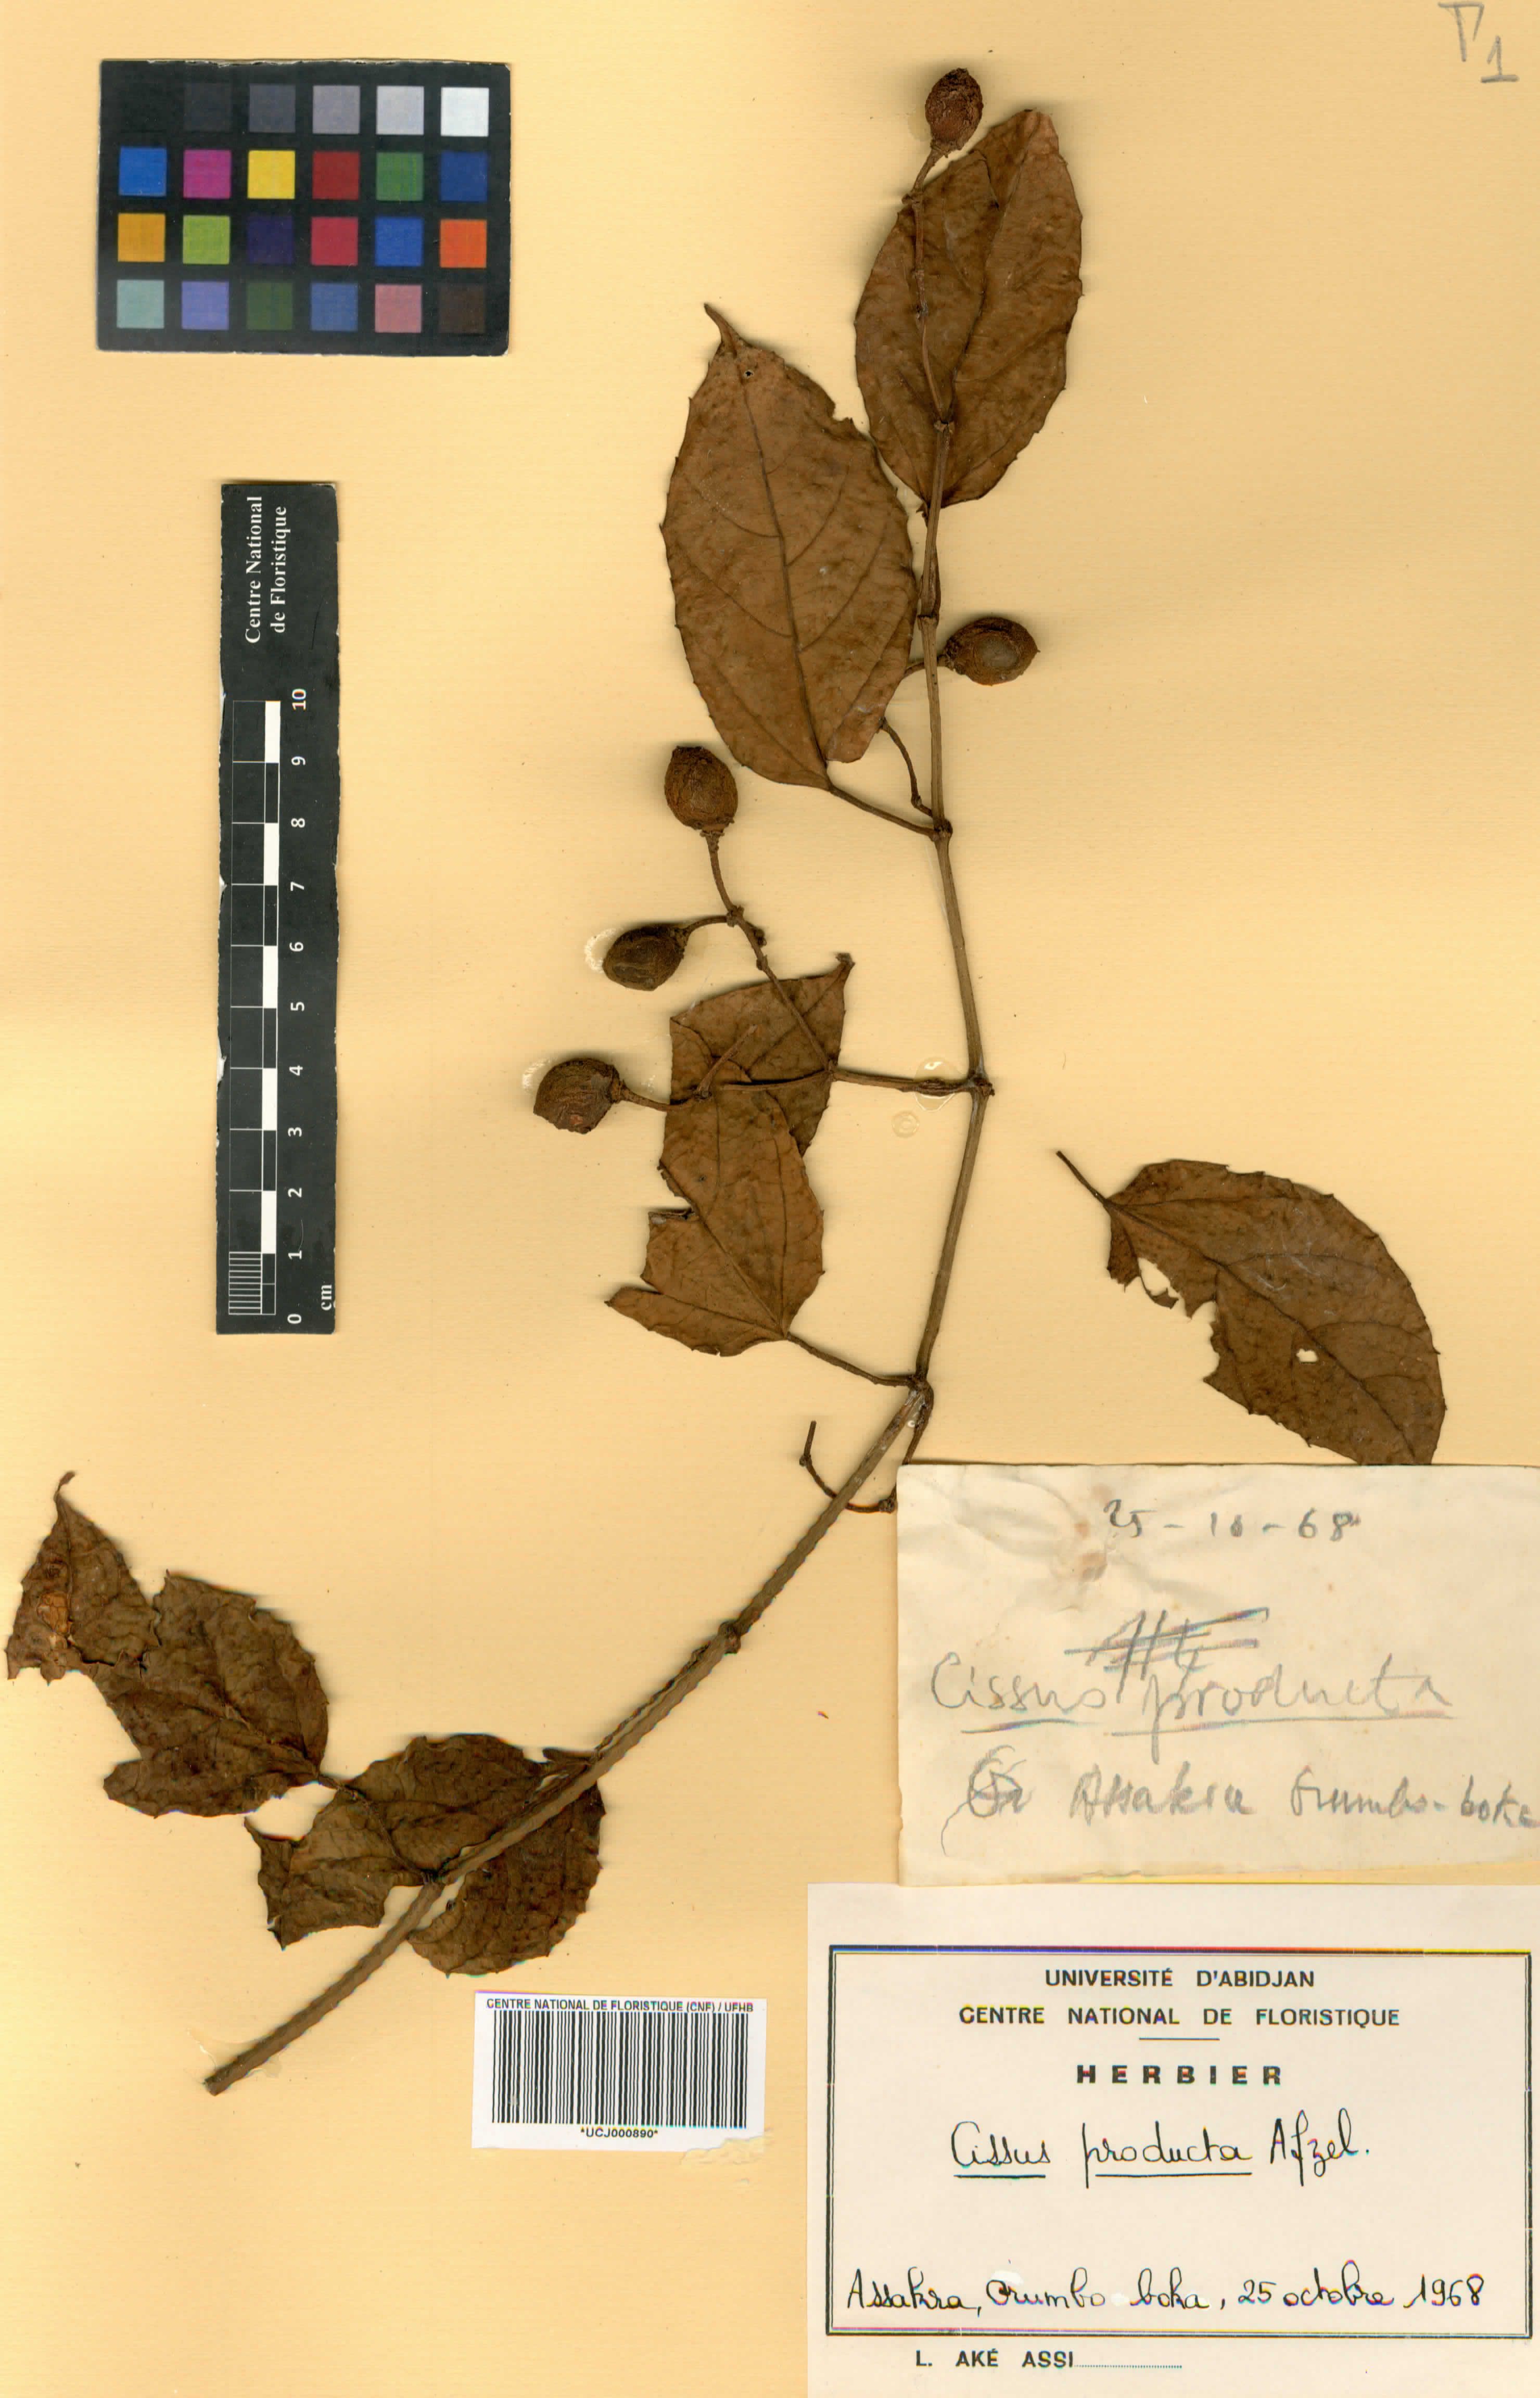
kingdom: Plantae
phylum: Tracheophyta
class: Magnoliopsida
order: Vitales
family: Vitaceae
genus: Cissus
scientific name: Cissus producta
